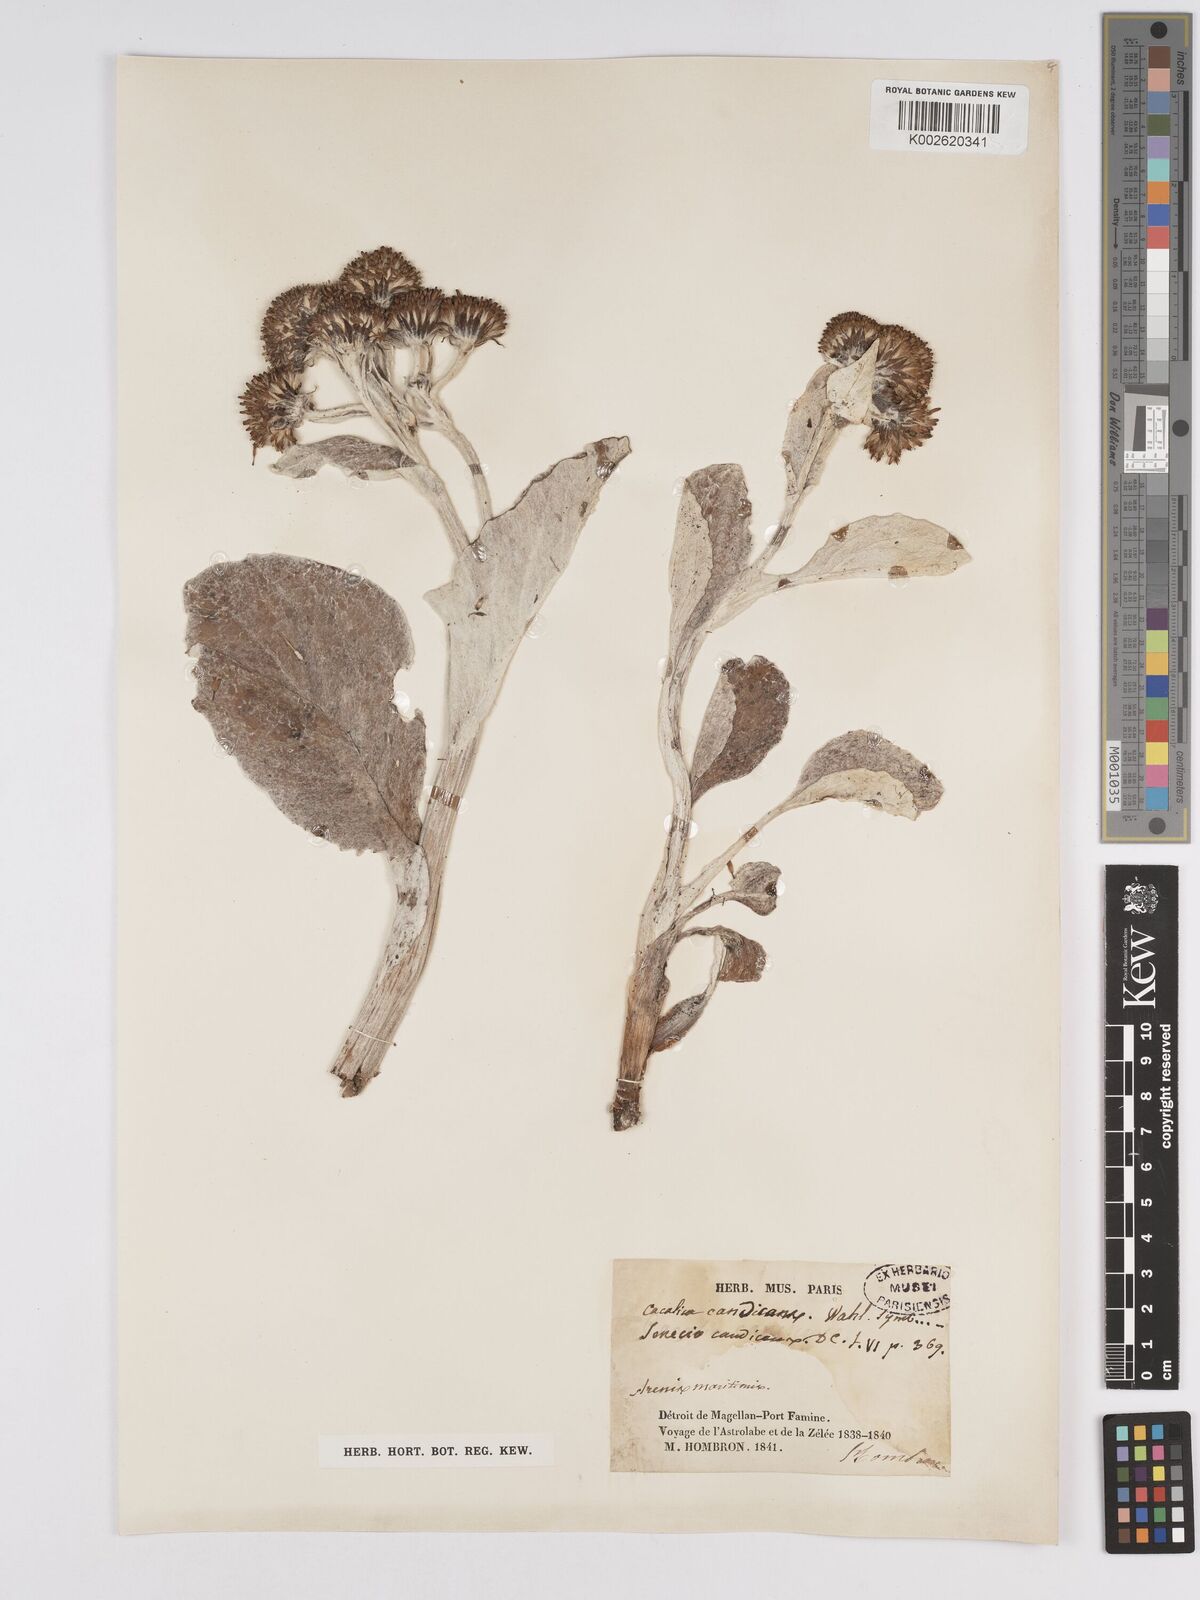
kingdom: Plantae
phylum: Tracheophyta
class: Magnoliopsida
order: Asterales
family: Asteraceae
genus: Senecio
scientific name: Senecio candidans
